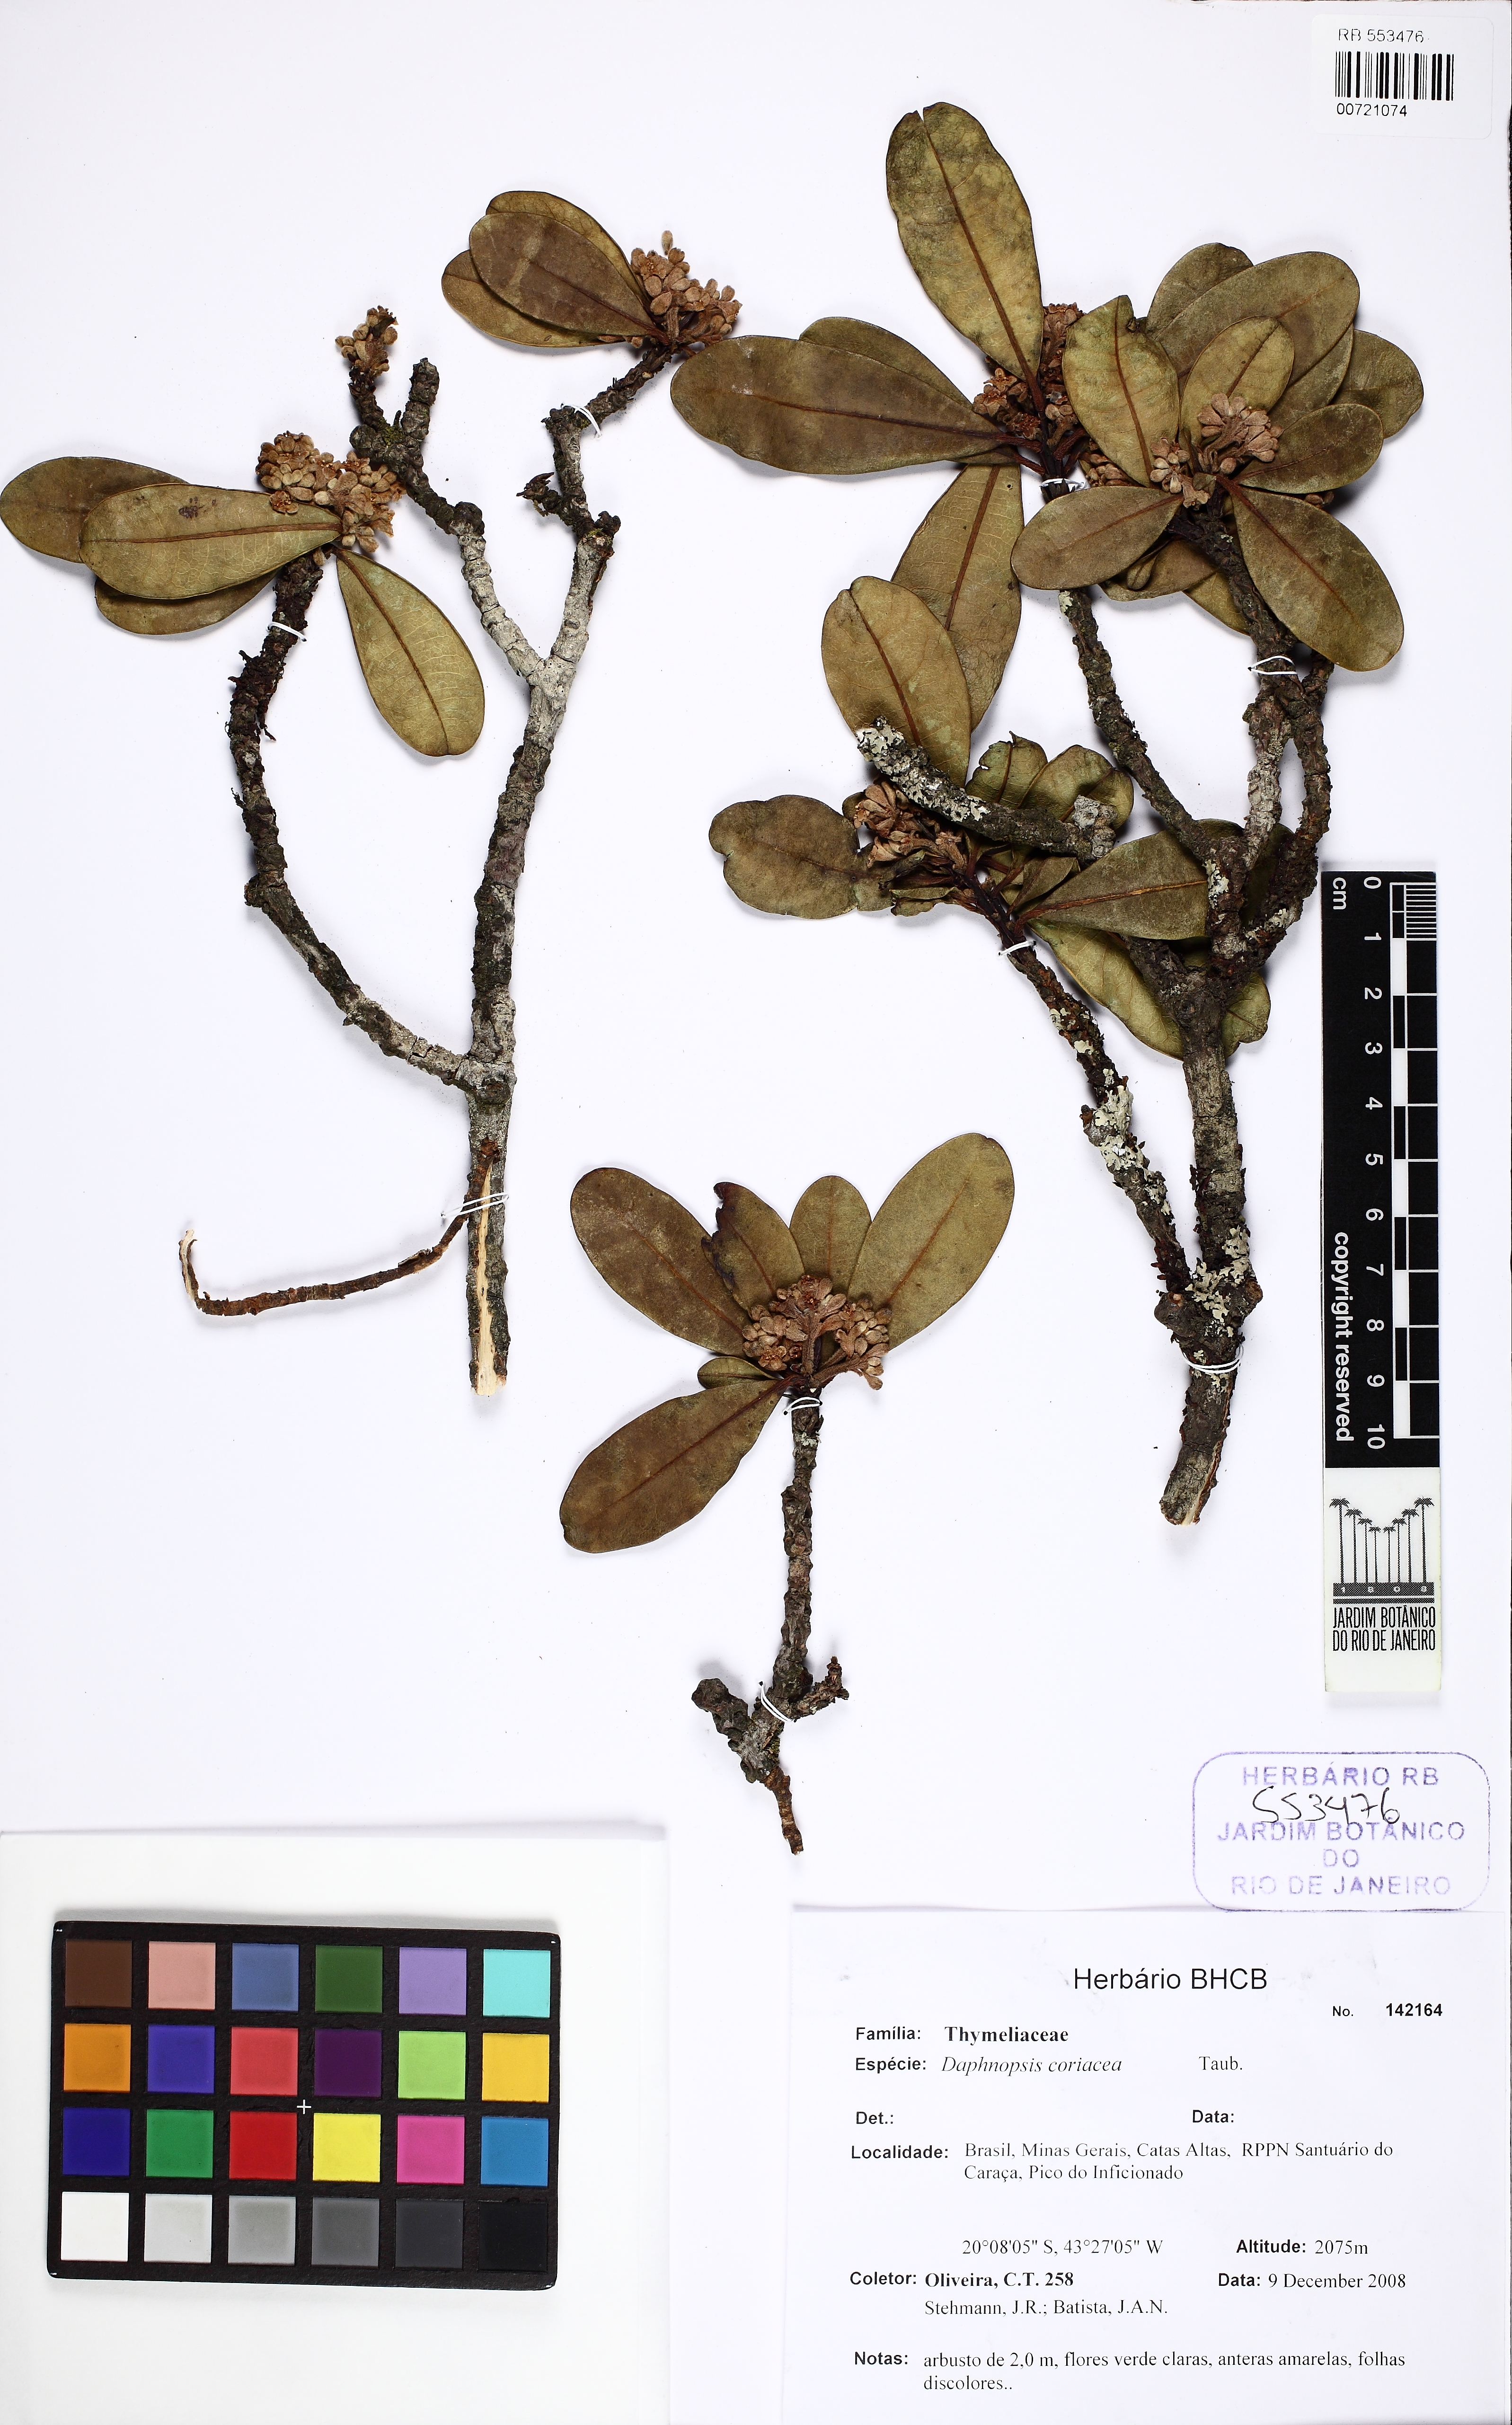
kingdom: Plantae
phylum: Tracheophyta
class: Magnoliopsida
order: Malvales
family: Thymelaeaceae
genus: Daphnopsis
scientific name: Daphnopsis coriacea
